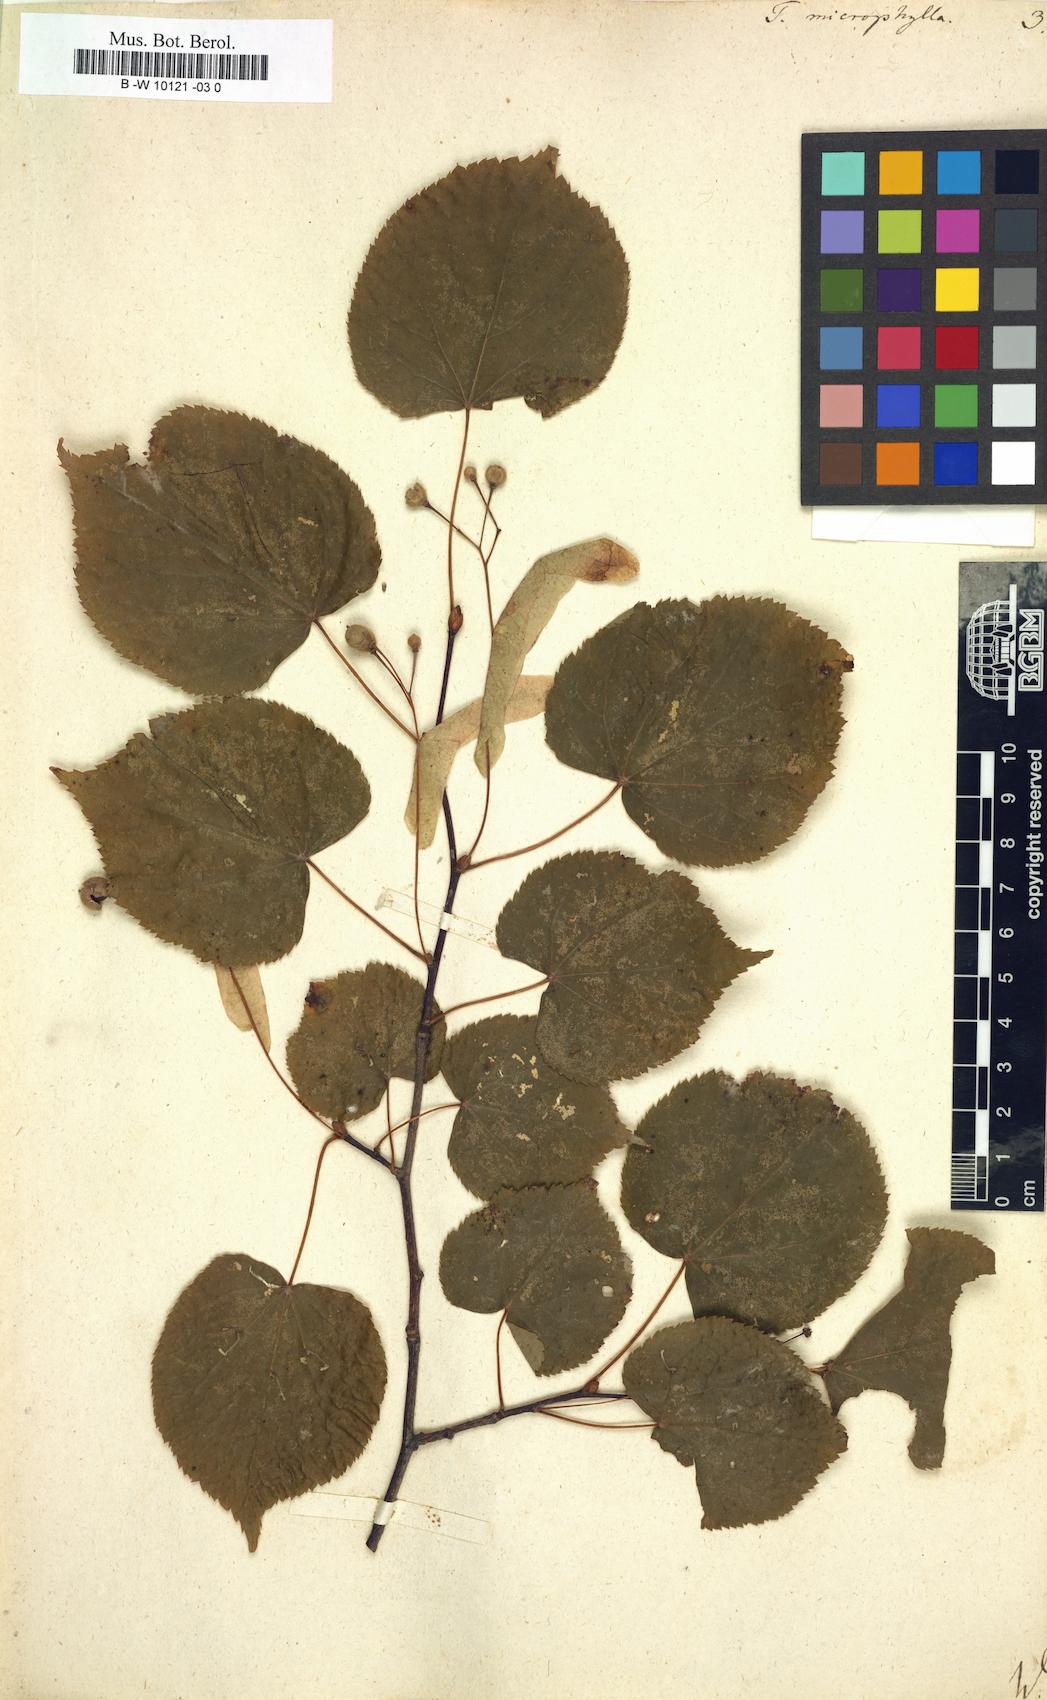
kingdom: Plantae
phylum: Tracheophyta
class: Magnoliopsida
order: Malvales
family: Malvaceae
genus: Tilia
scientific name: Tilia cordata
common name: Small-leaved lime
